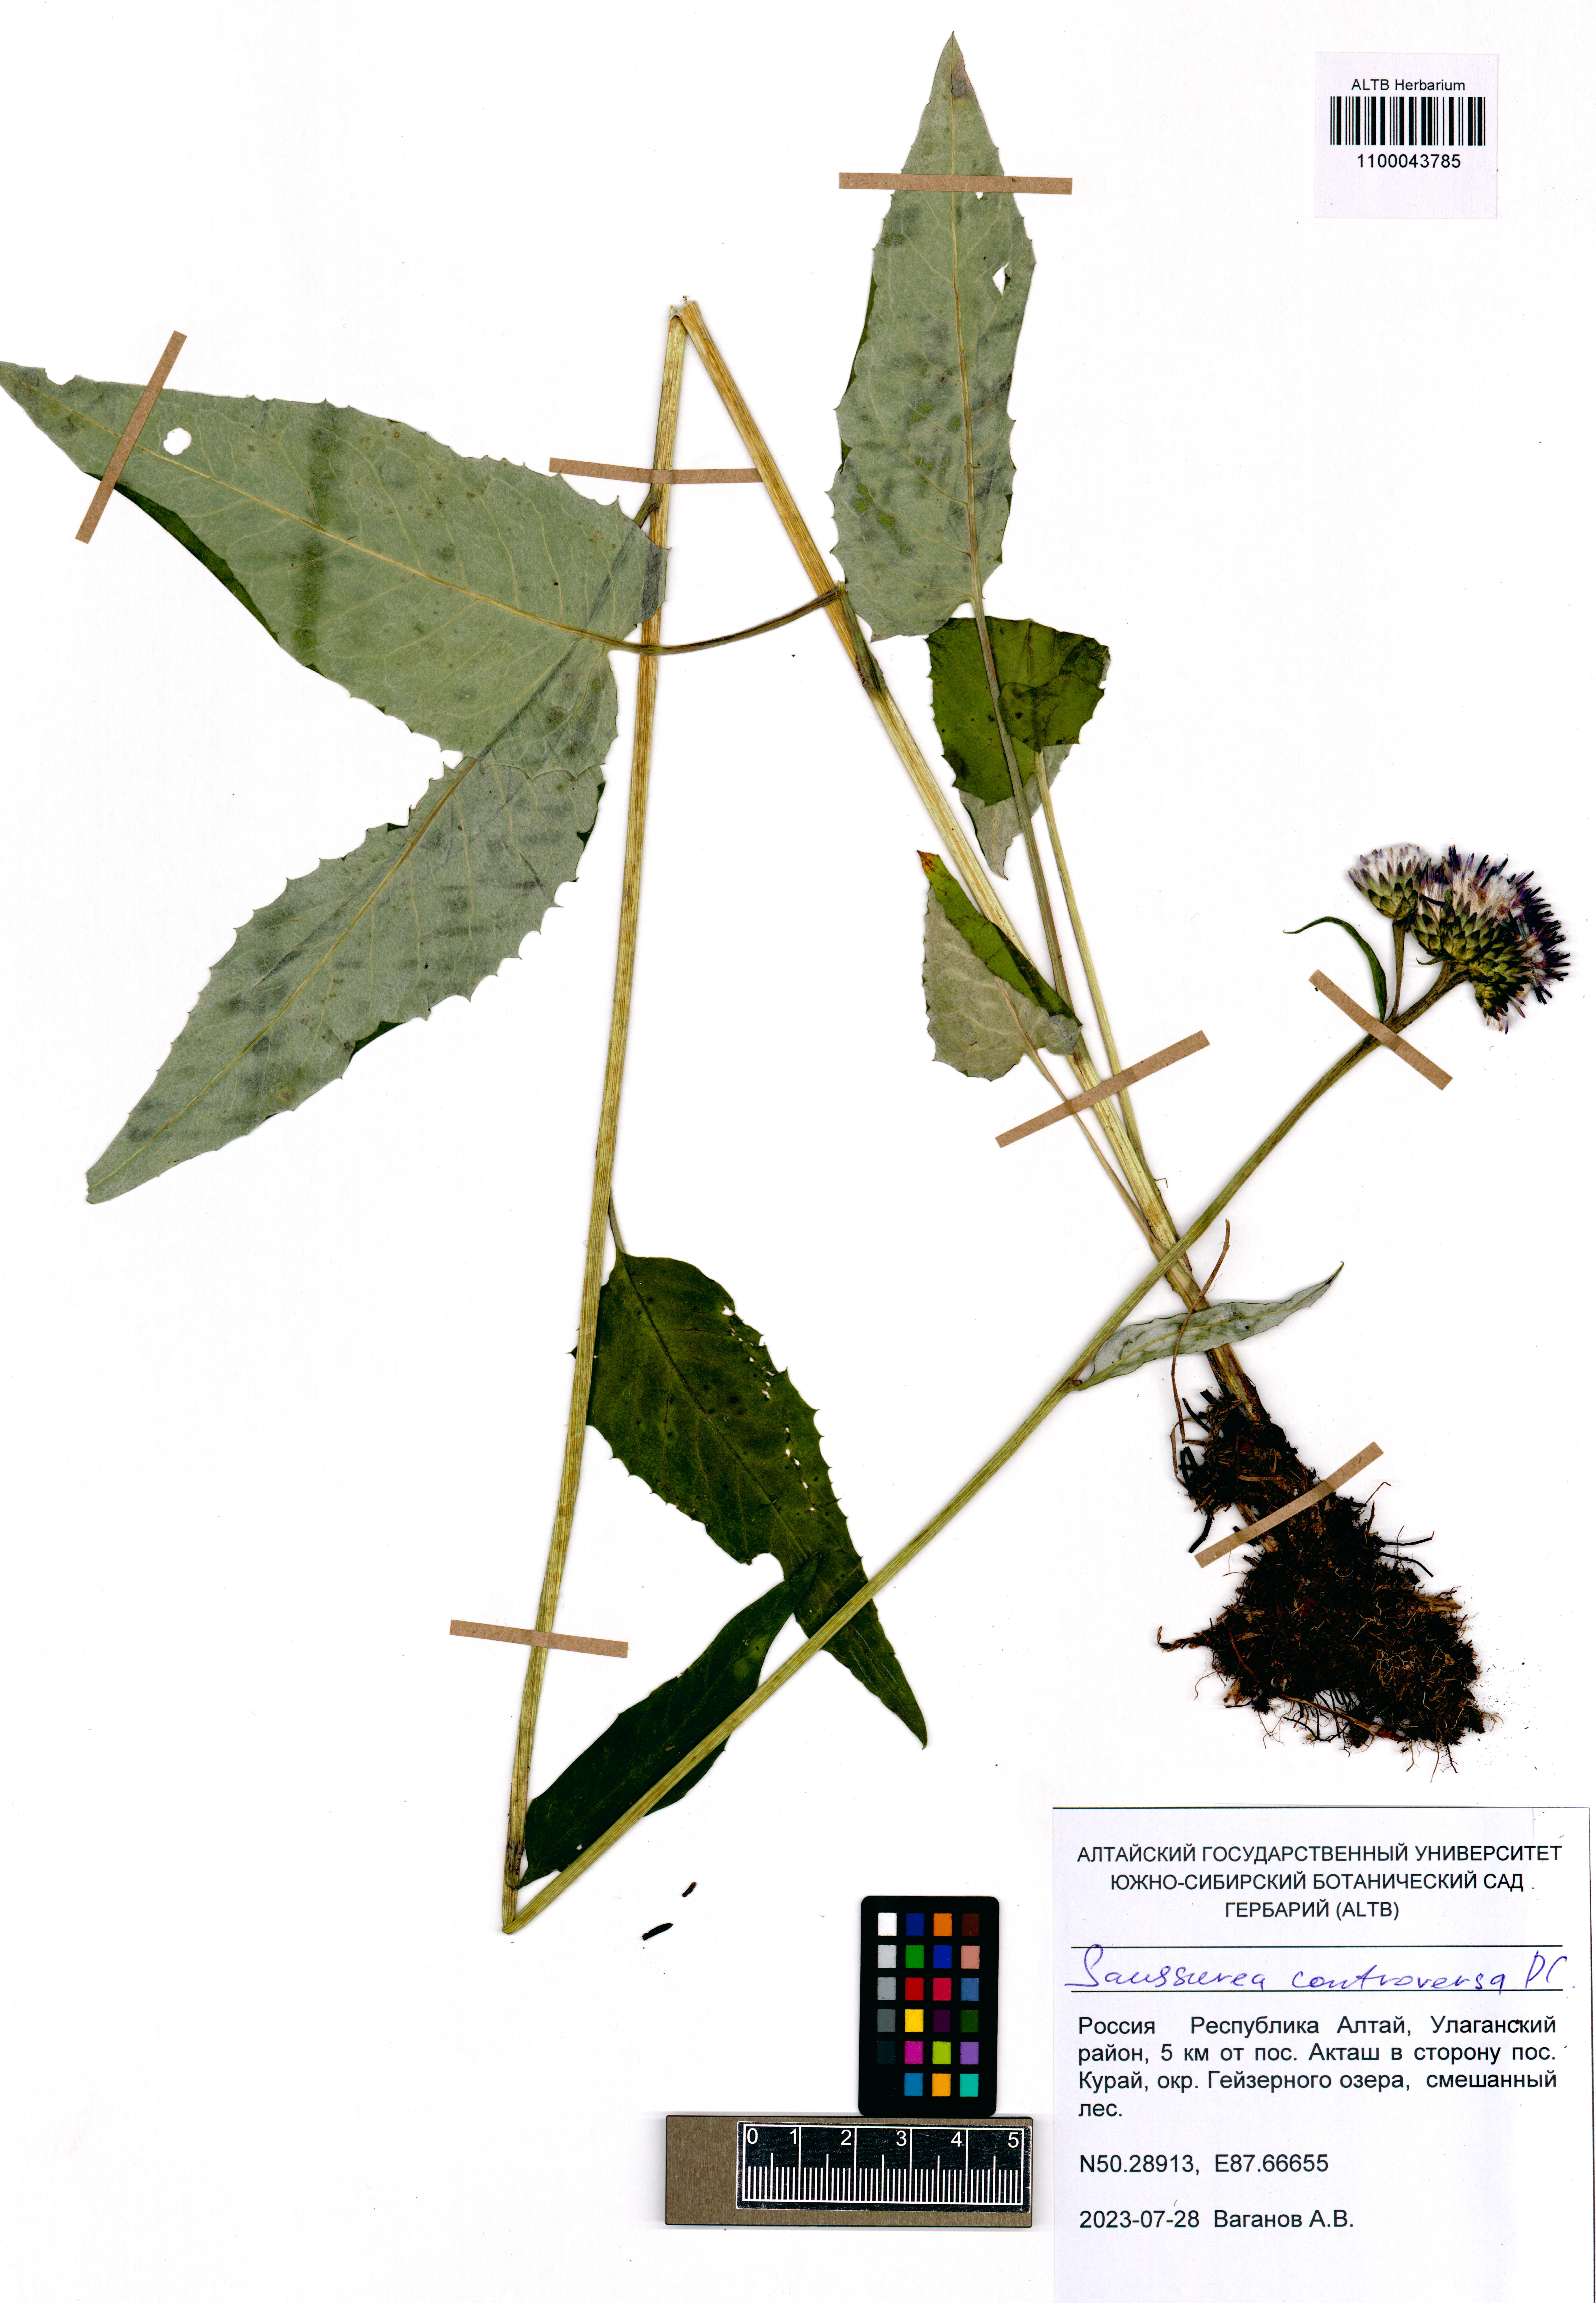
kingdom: Plantae
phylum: Tracheophyta
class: Magnoliopsida
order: Asterales
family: Asteraceae
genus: Saussurea
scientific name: Saussurea controversa
